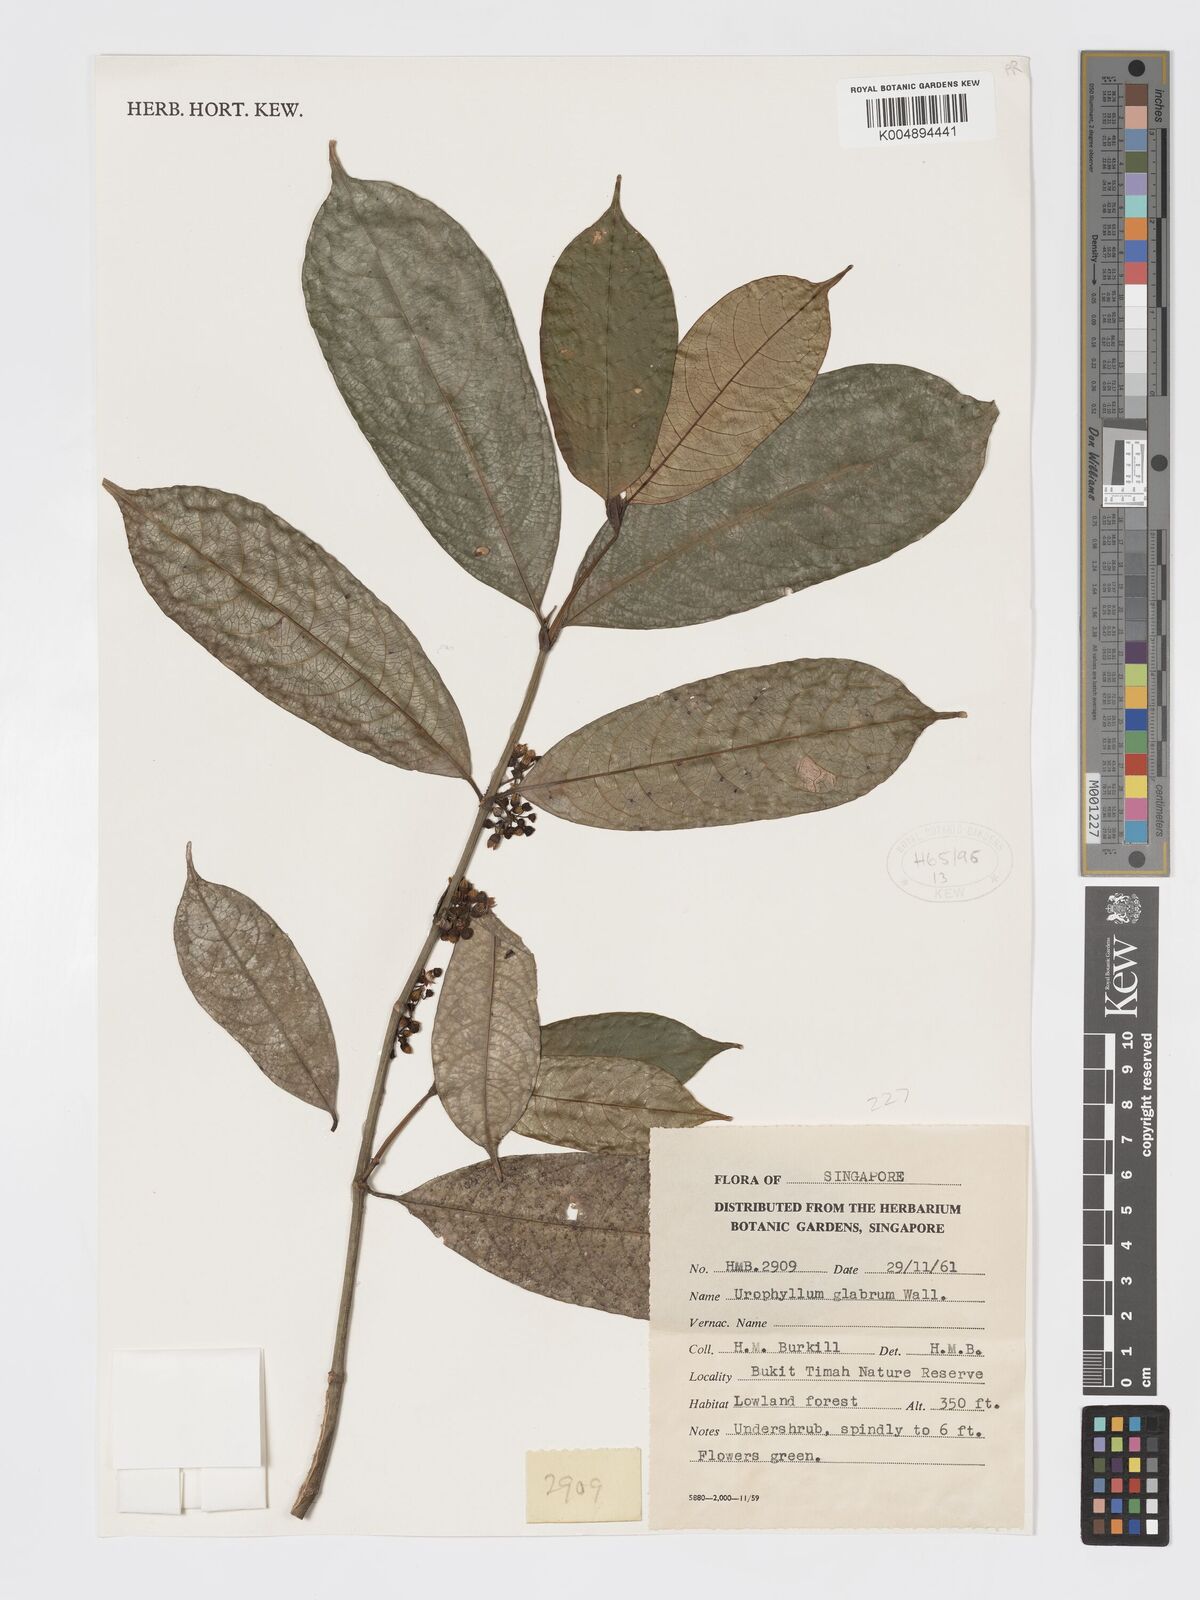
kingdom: Plantae
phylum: Tracheophyta
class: Magnoliopsida
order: Gentianales
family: Rubiaceae
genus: Urophyllum
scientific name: Urophyllum griffithianum
